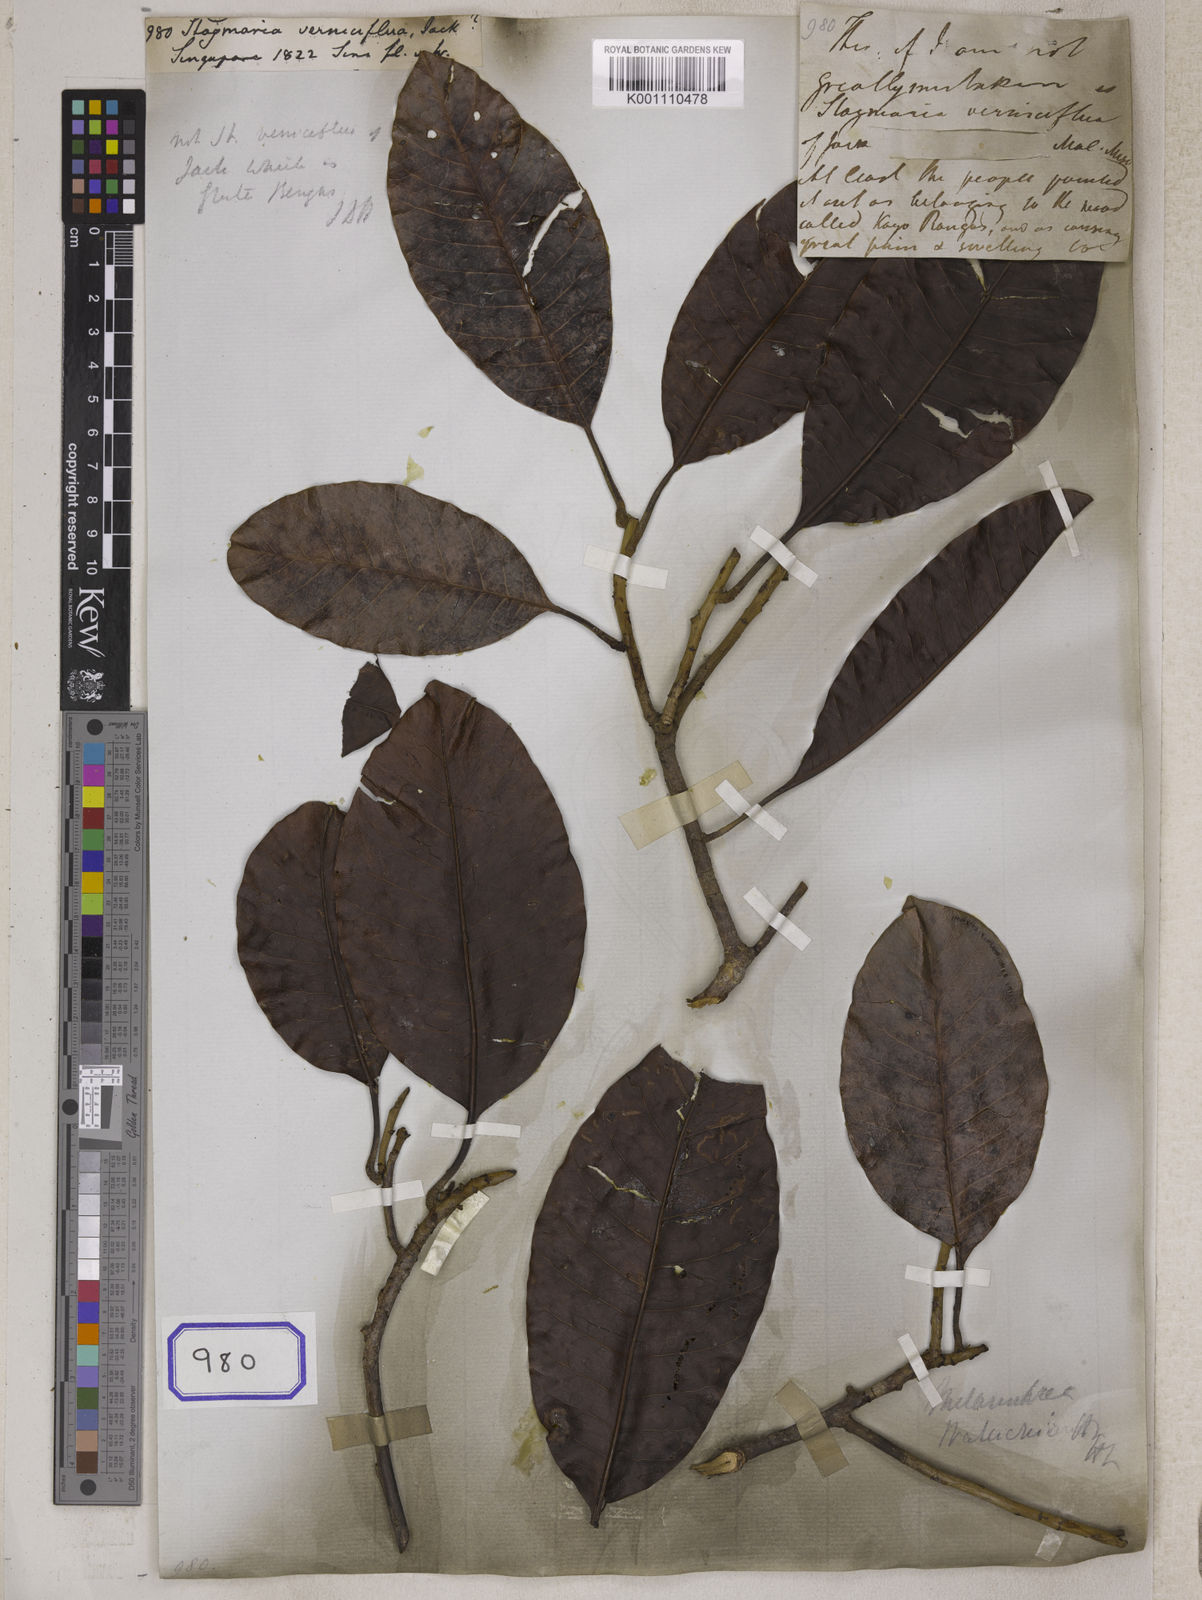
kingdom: Plantae
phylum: Tracheophyta
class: Magnoliopsida
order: Sapindales
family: Anacardiaceae
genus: Gluta
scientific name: Gluta renghas
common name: Rengas
